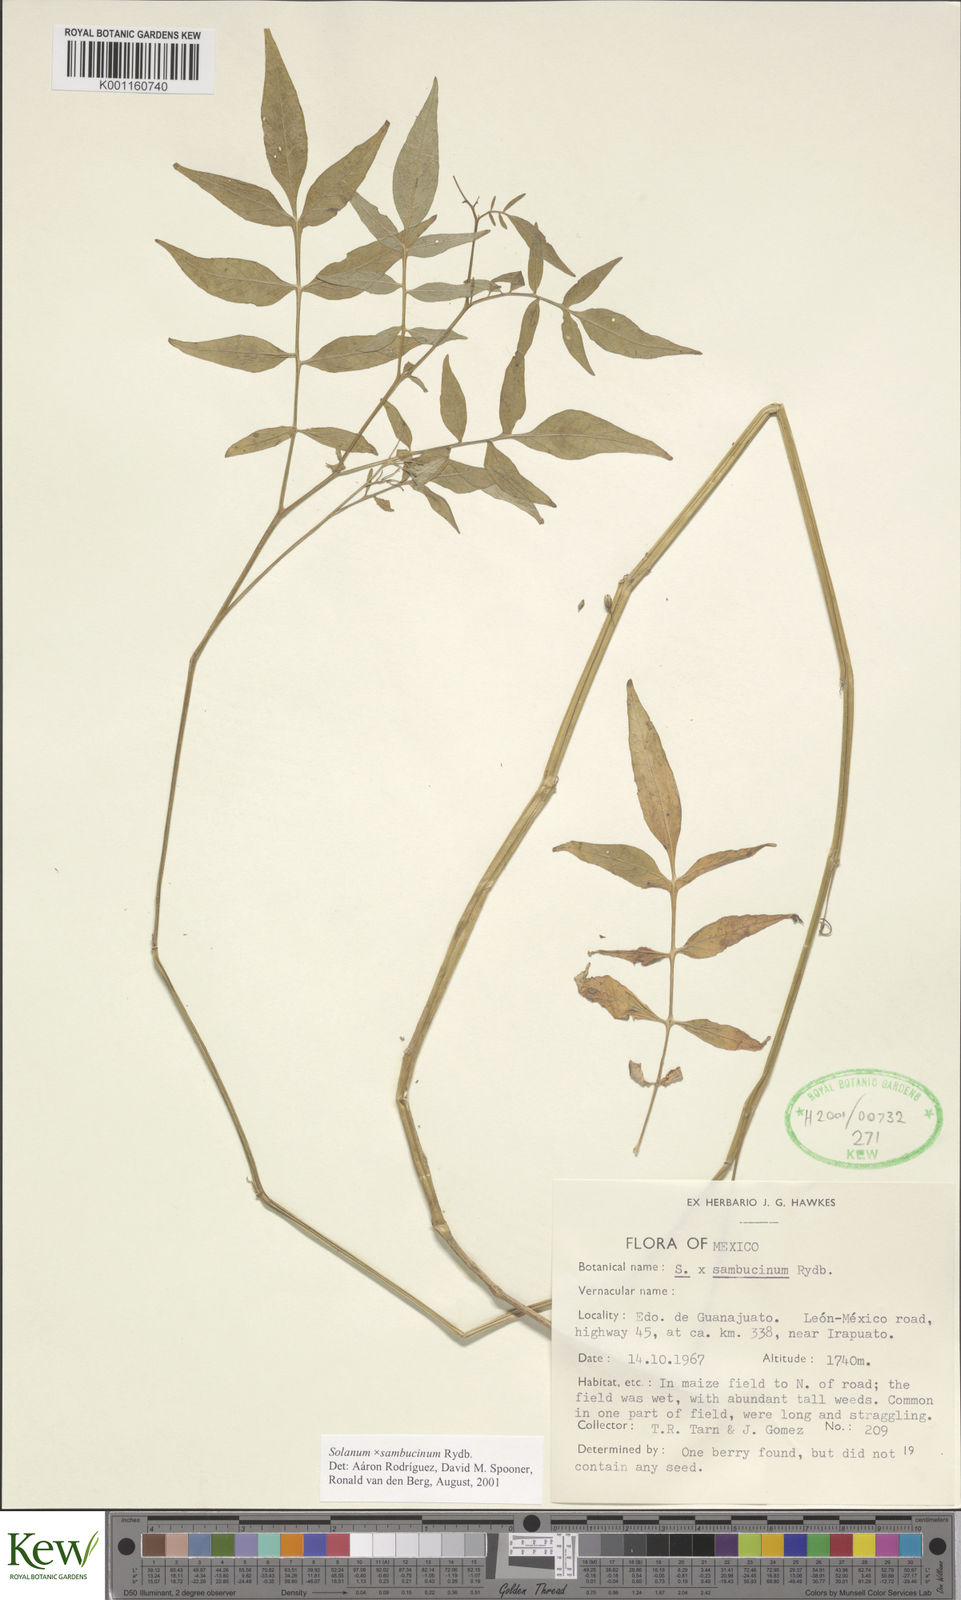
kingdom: Plantae
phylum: Tracheophyta
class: Magnoliopsida
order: Solanales
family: Solanaceae
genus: Solanum
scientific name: Solanum sambucinum
